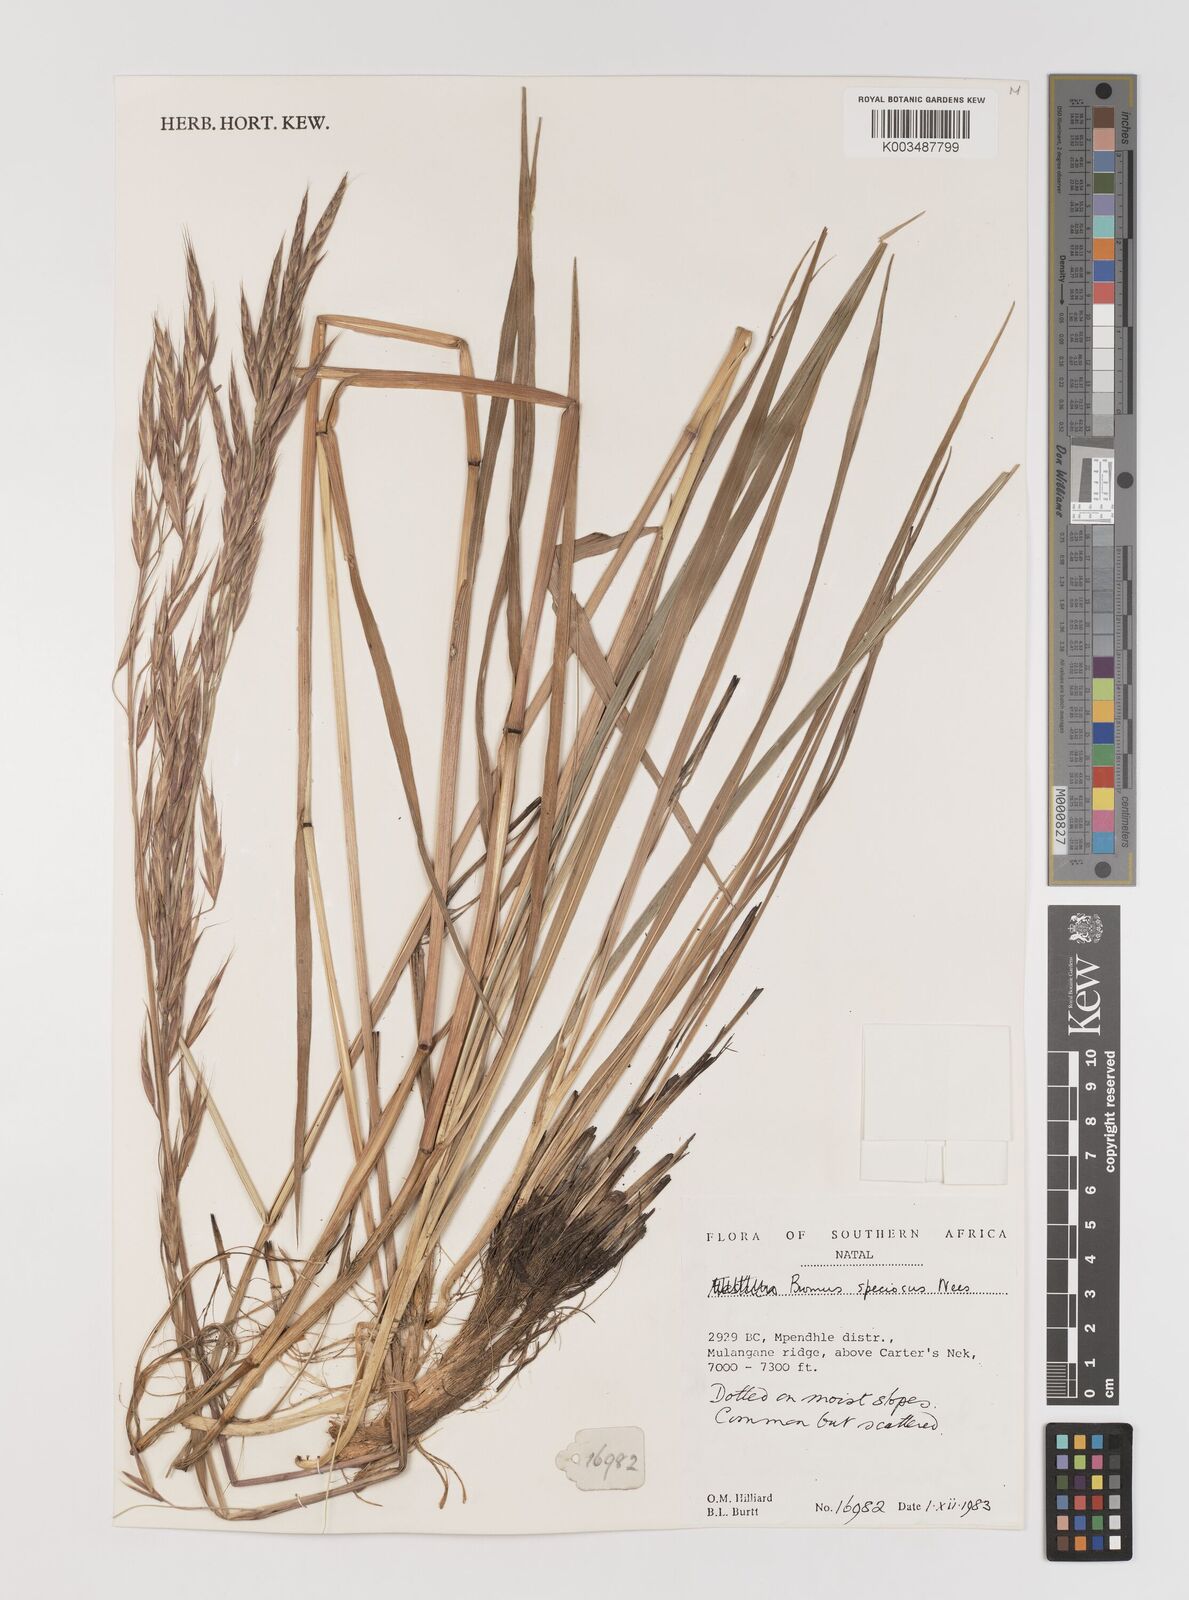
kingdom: Plantae
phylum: Tracheophyta
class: Liliopsida
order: Poales
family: Poaceae
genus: Bromus
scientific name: Bromus speciosus
